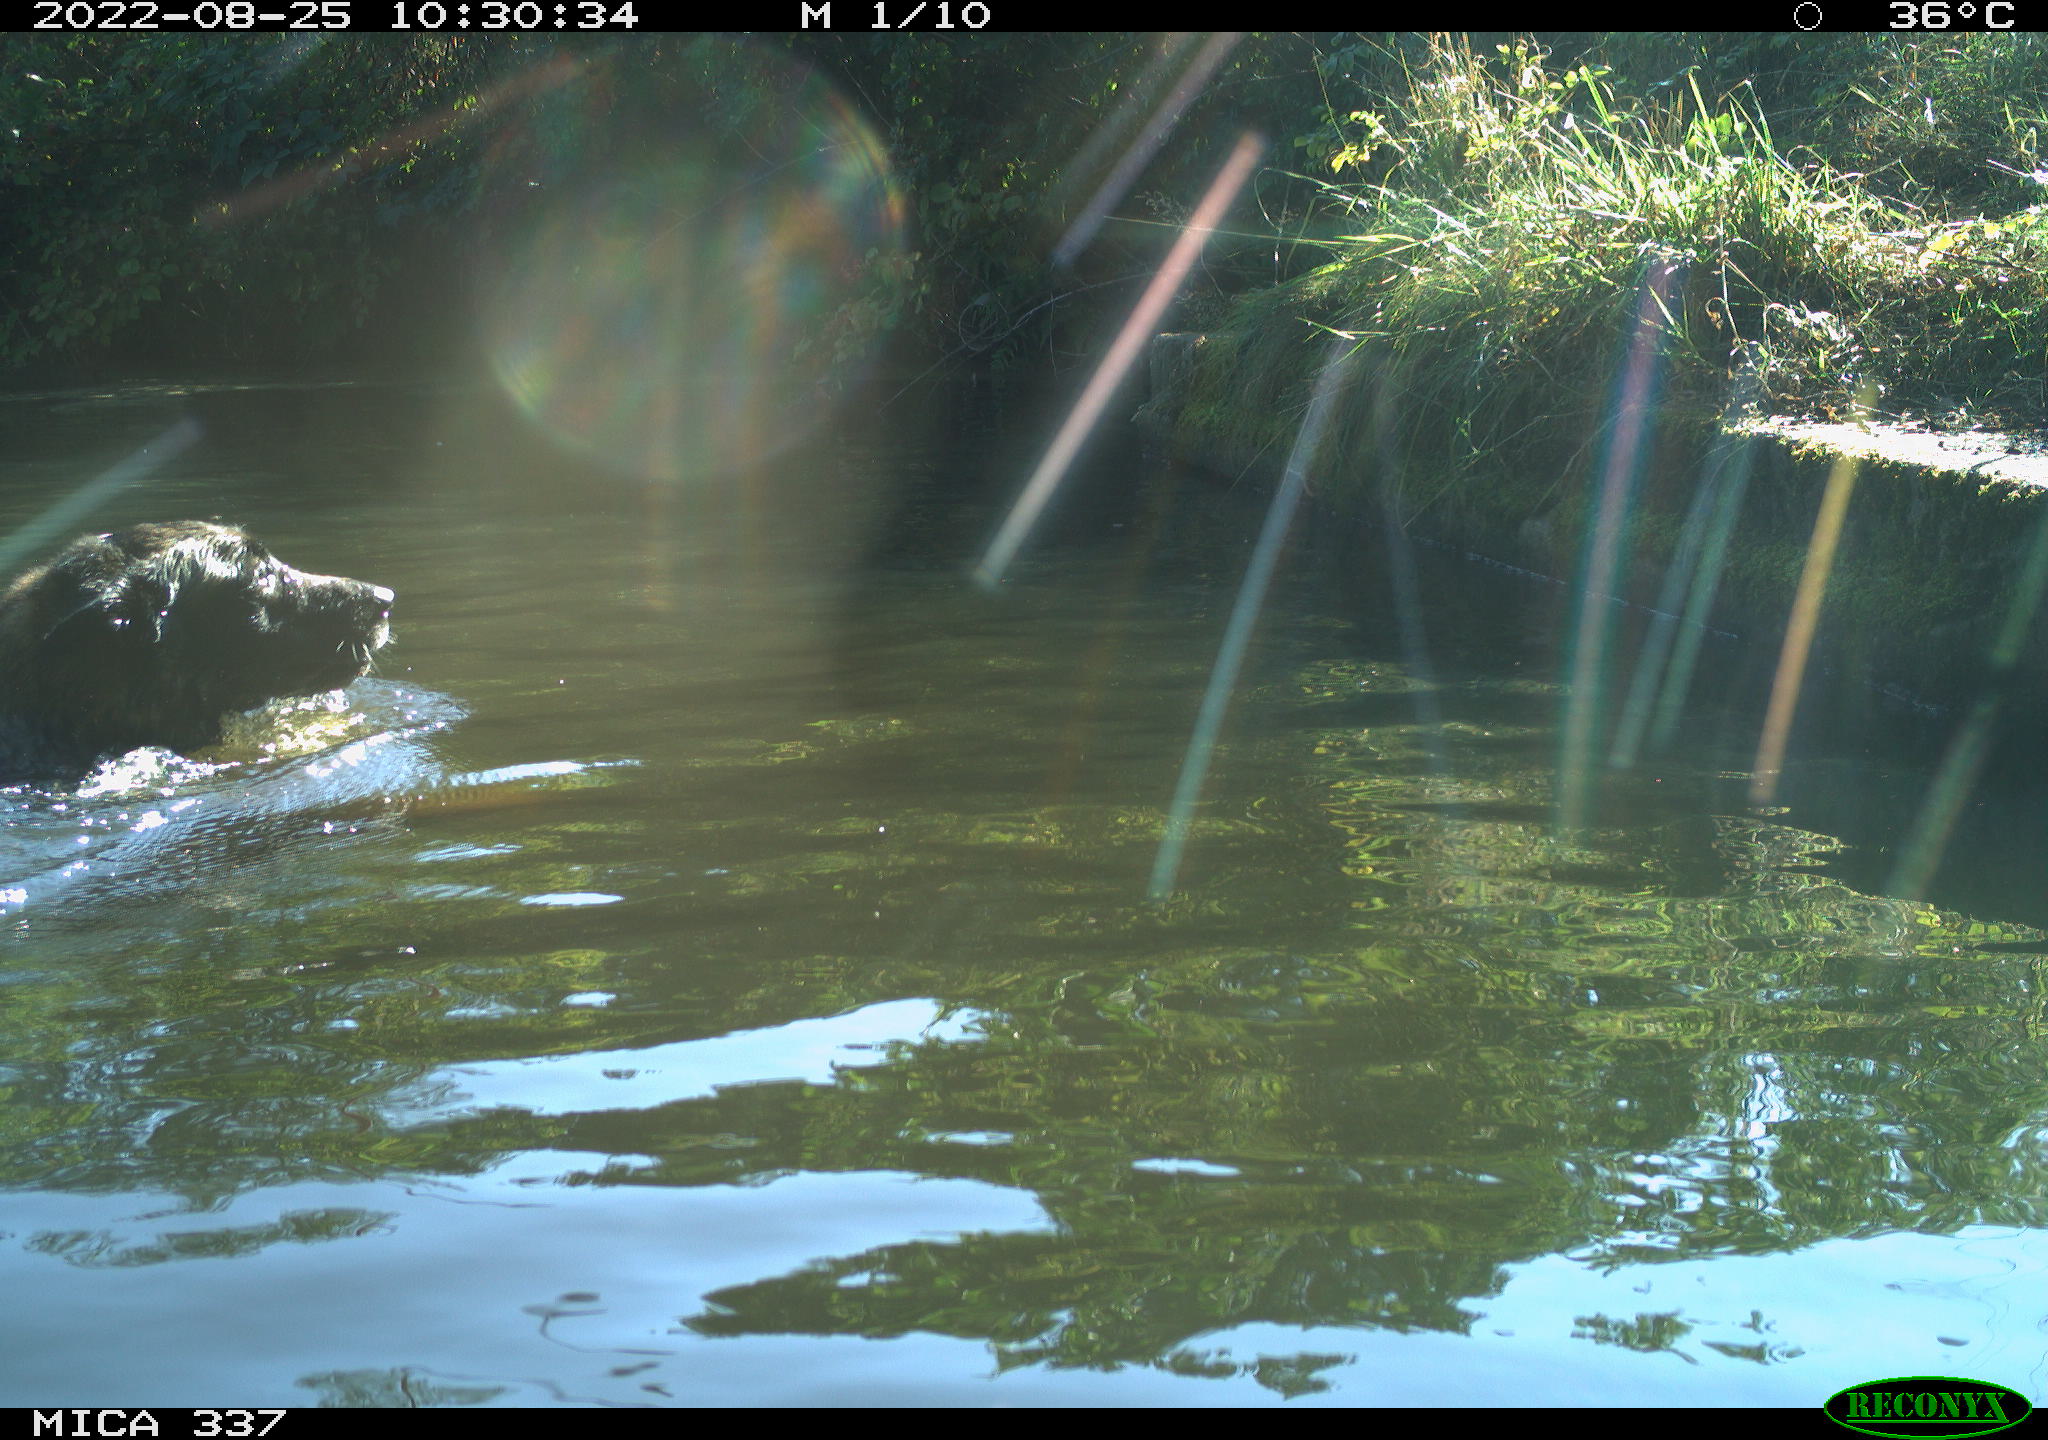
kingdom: Animalia
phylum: Chordata
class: Mammalia
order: Carnivora
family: Canidae
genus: Canis
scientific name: Canis lupus
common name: Gray wolf
